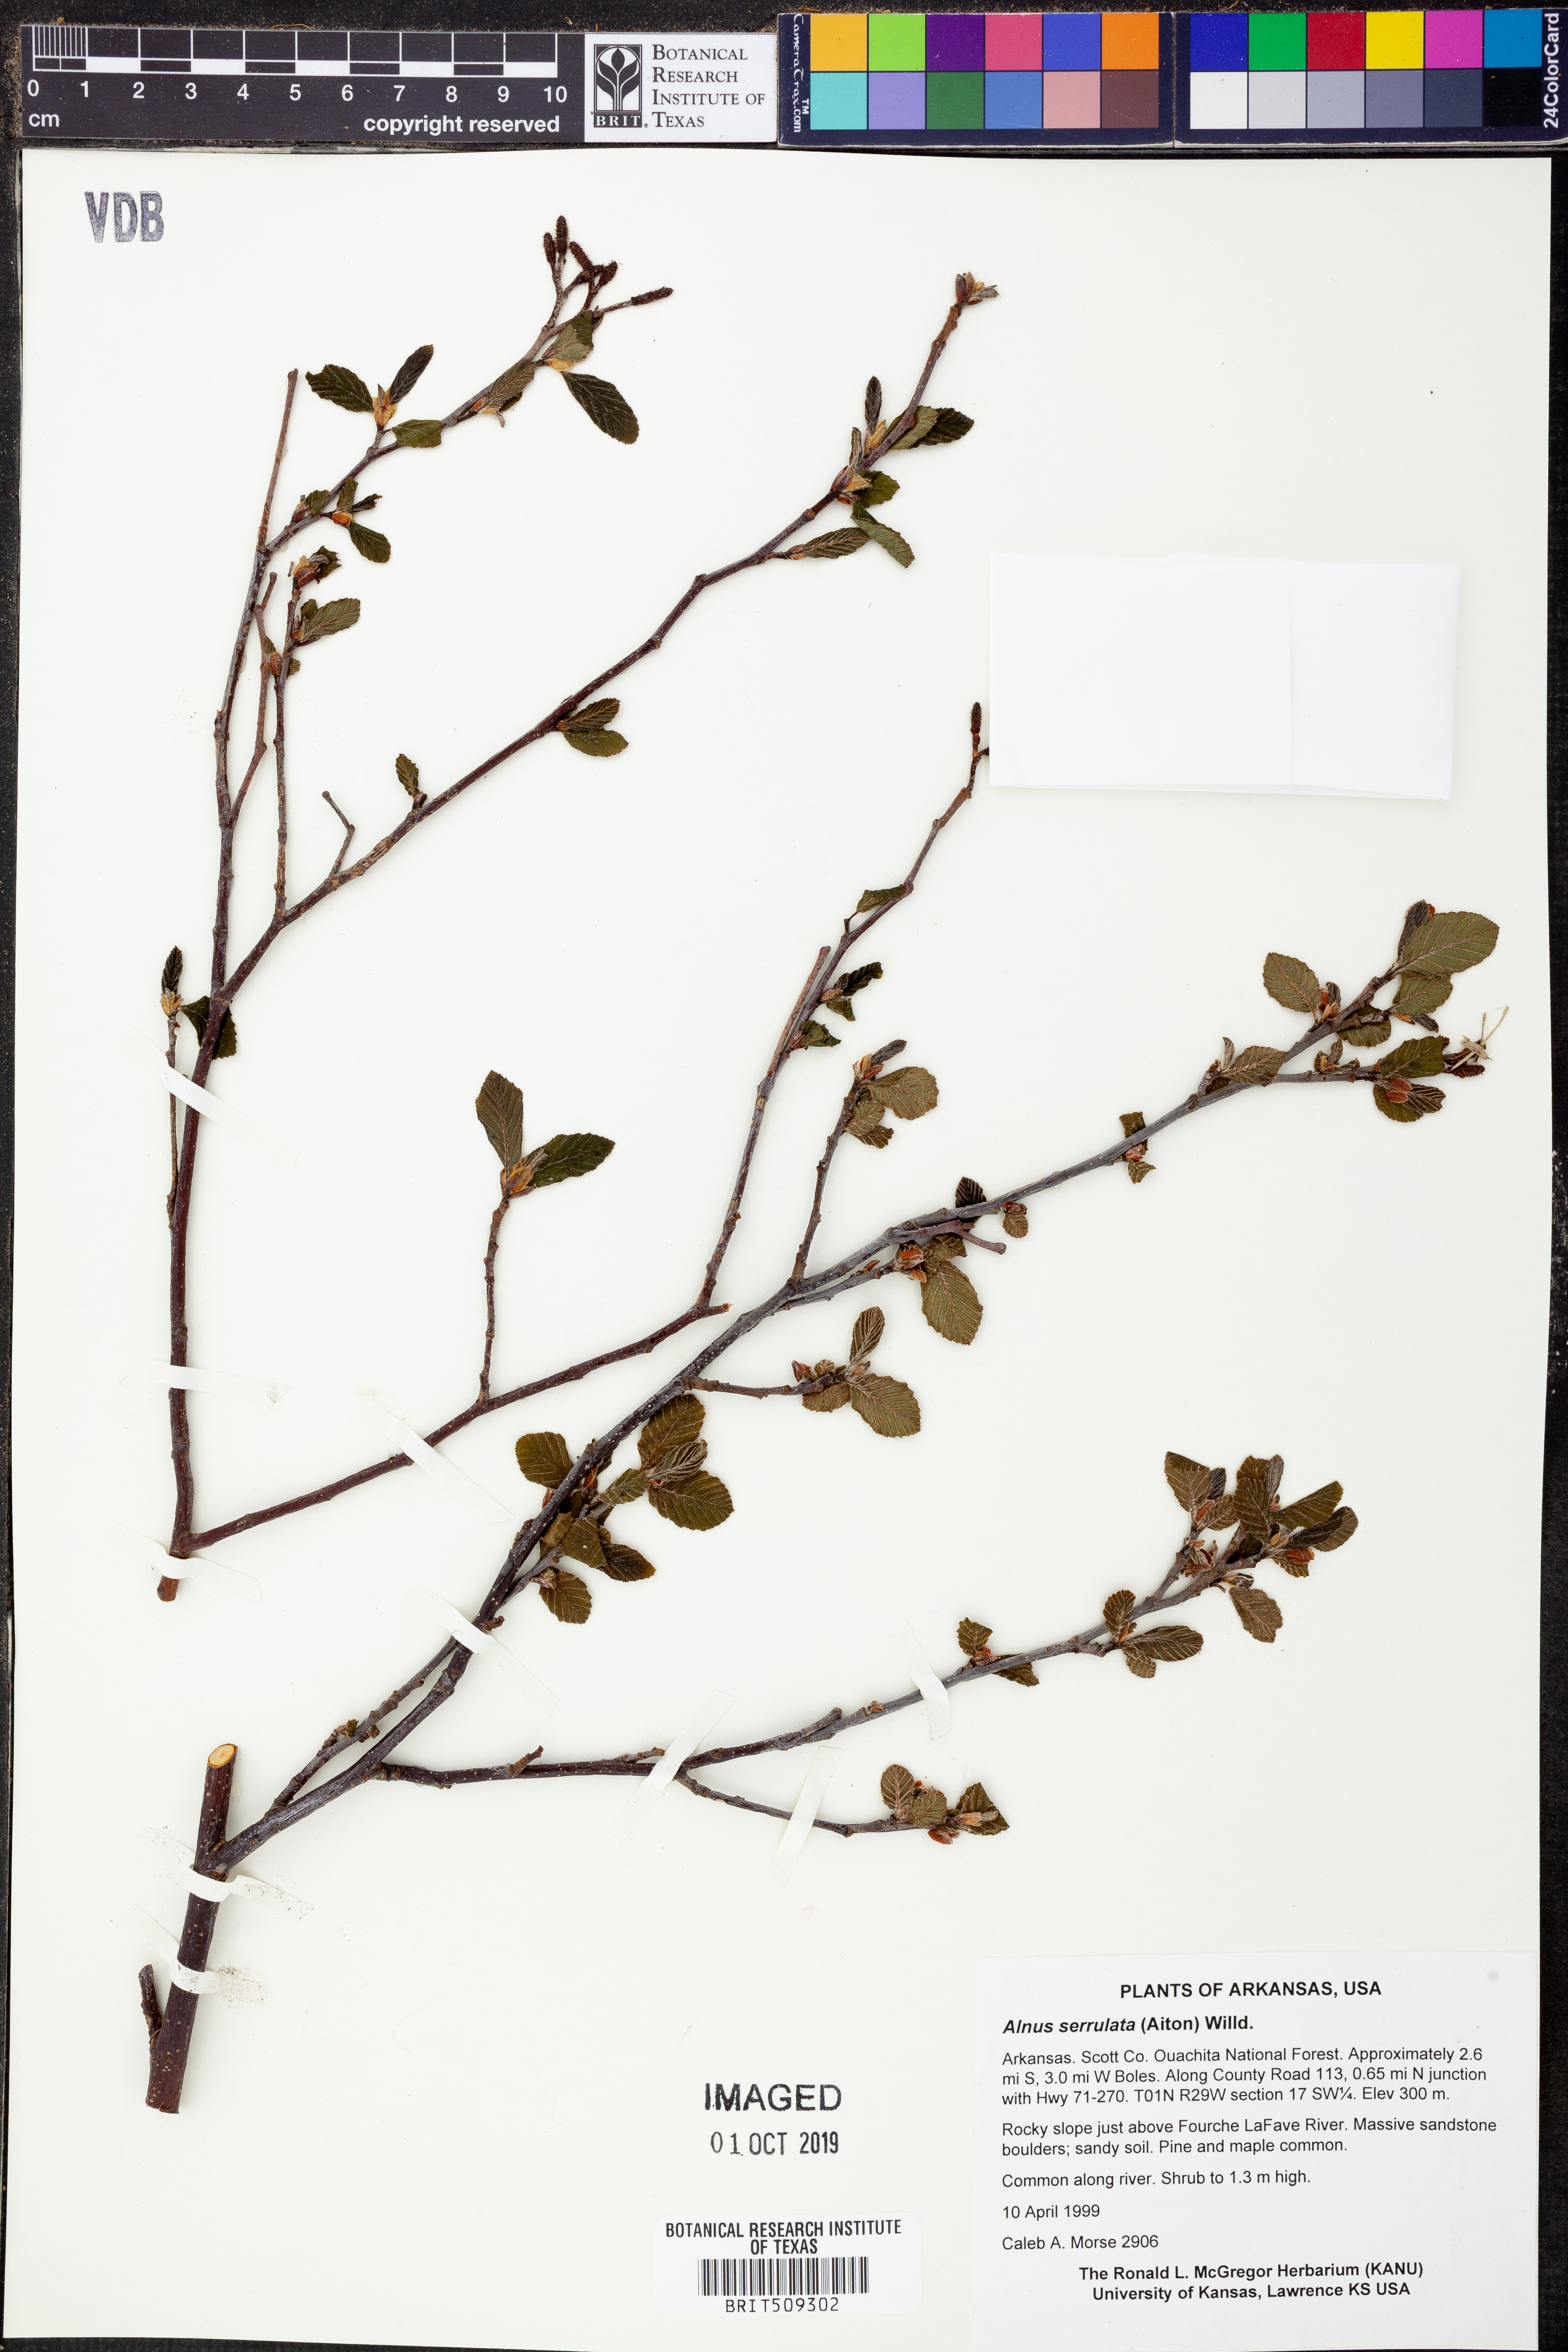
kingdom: Plantae
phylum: Tracheophyta
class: Magnoliopsida
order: Fagales
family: Betulaceae
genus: Alnus
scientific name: Alnus serrulata
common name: Hazel alder
